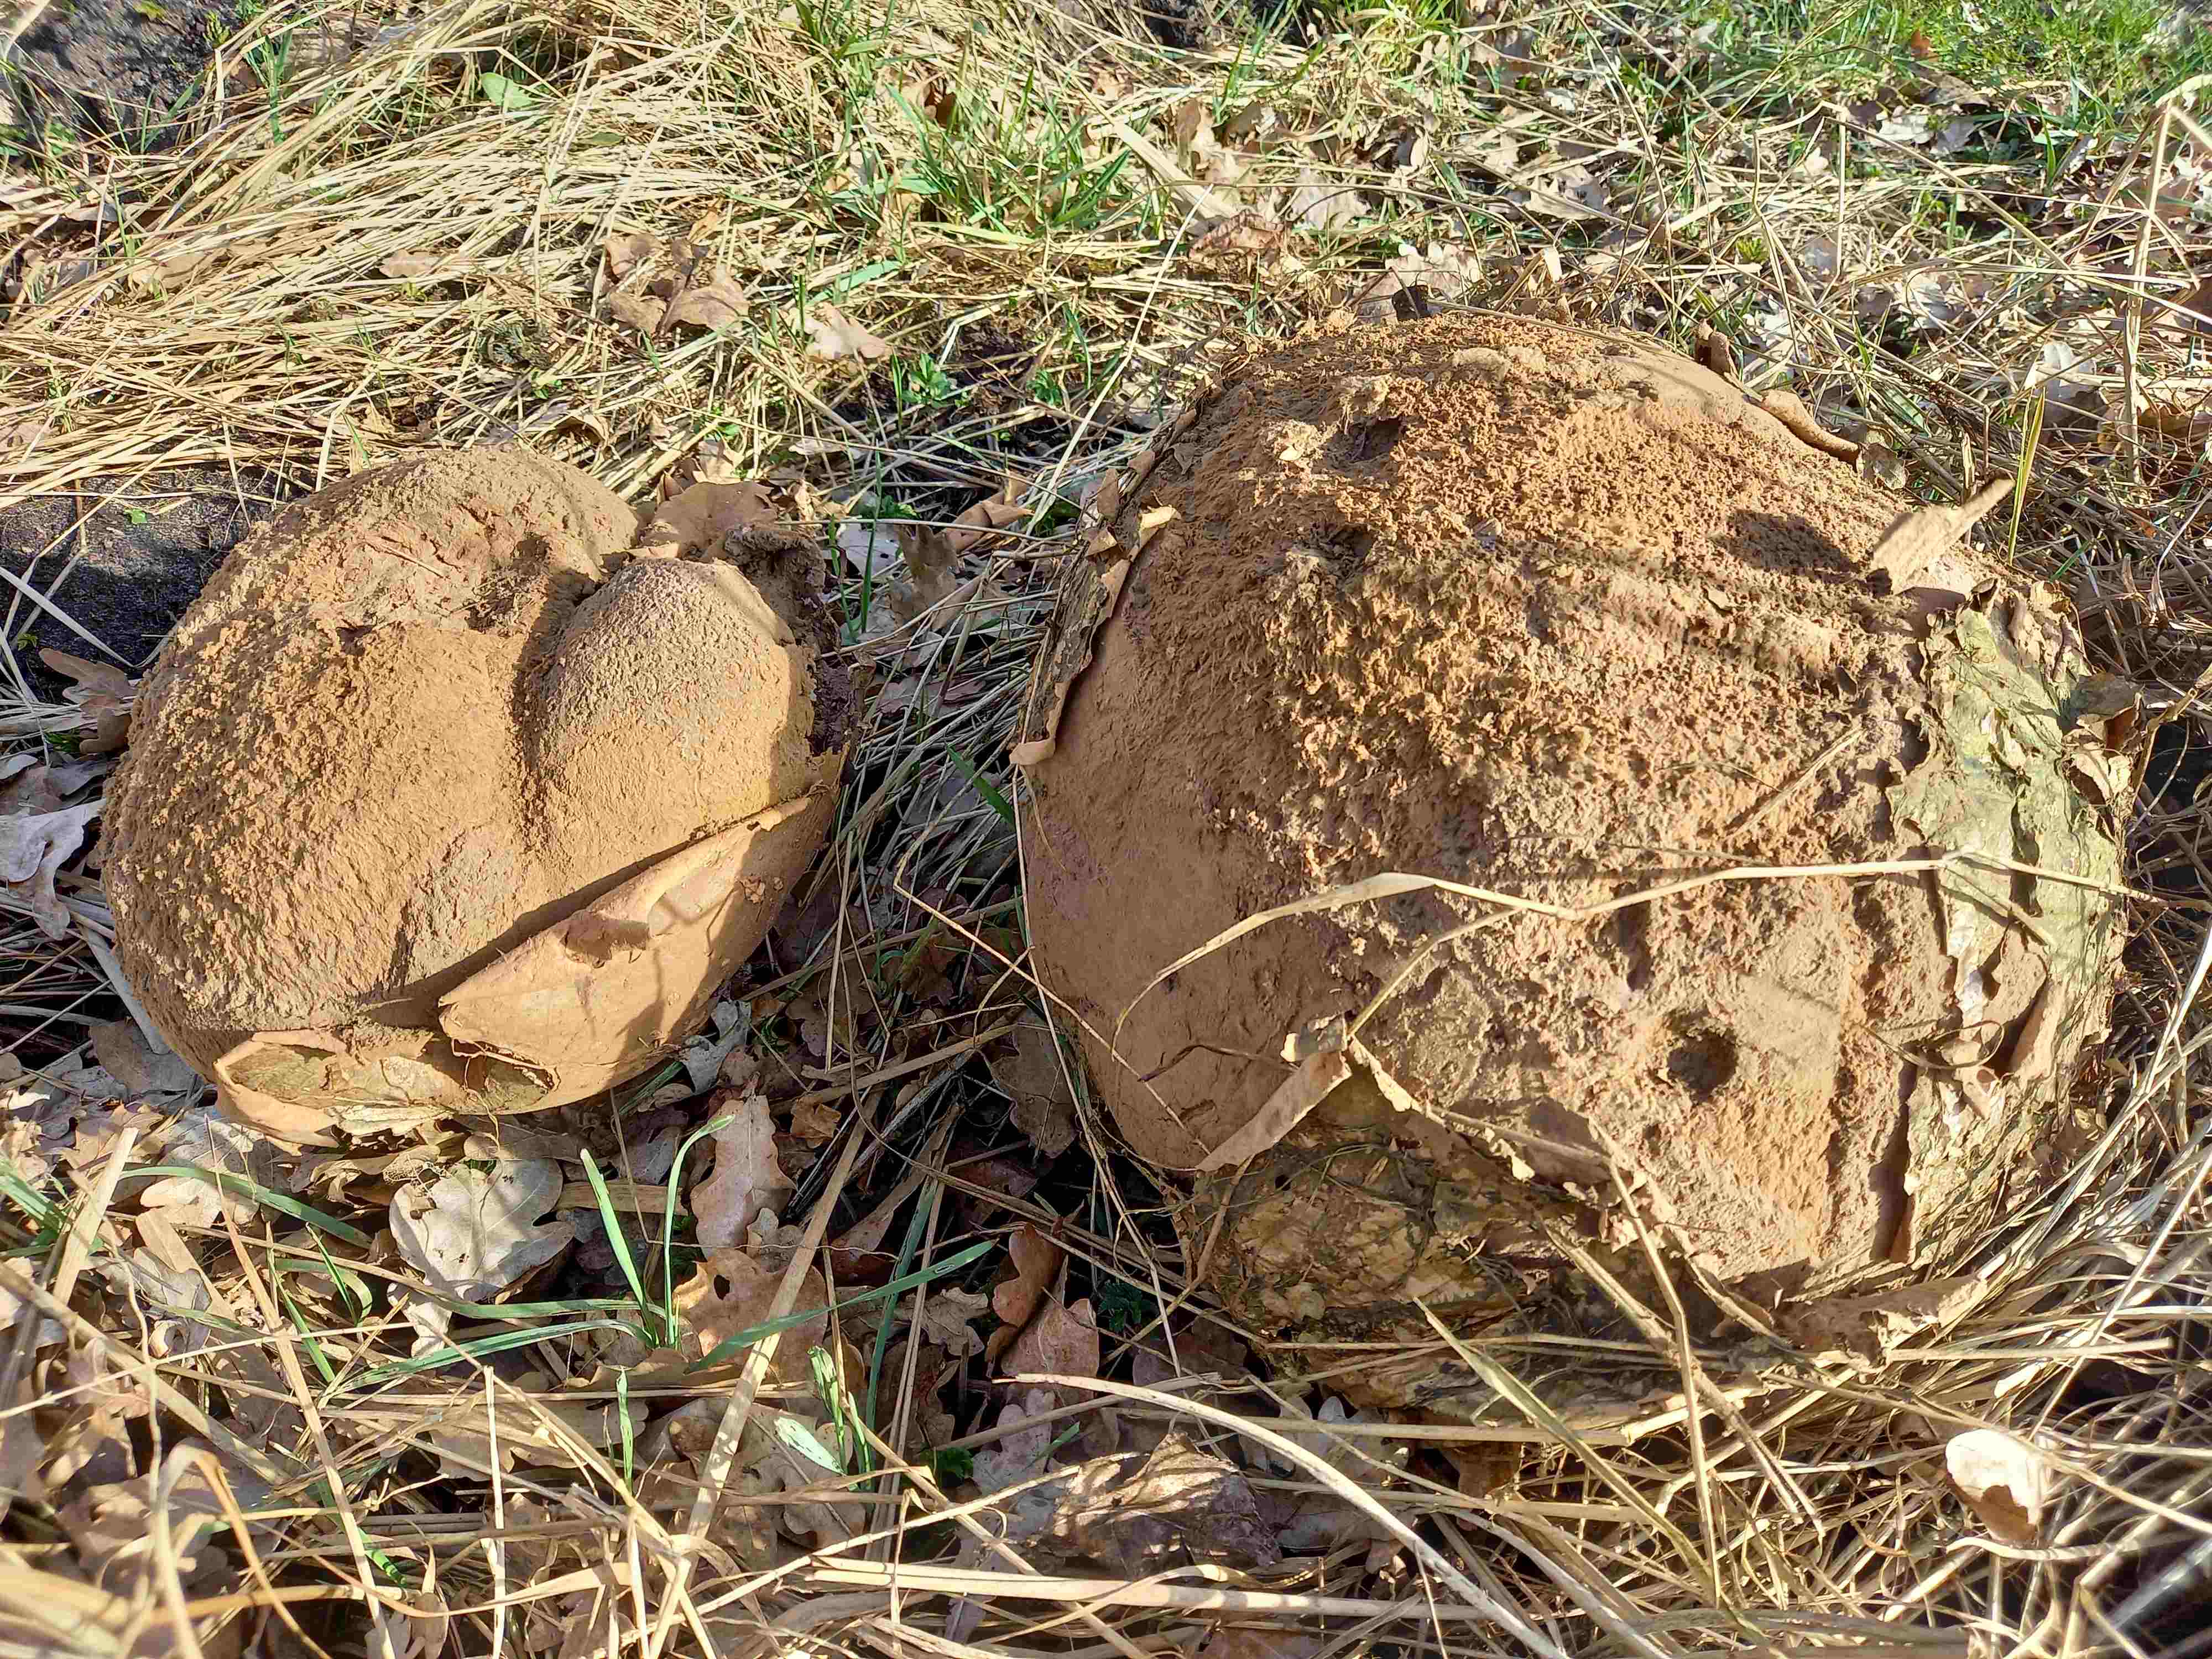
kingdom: Fungi
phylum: Basidiomycota
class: Agaricomycetes
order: Agaricales
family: Lycoperdaceae
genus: Calvatia
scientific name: Calvatia gigantea
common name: kæmpestøvbold
